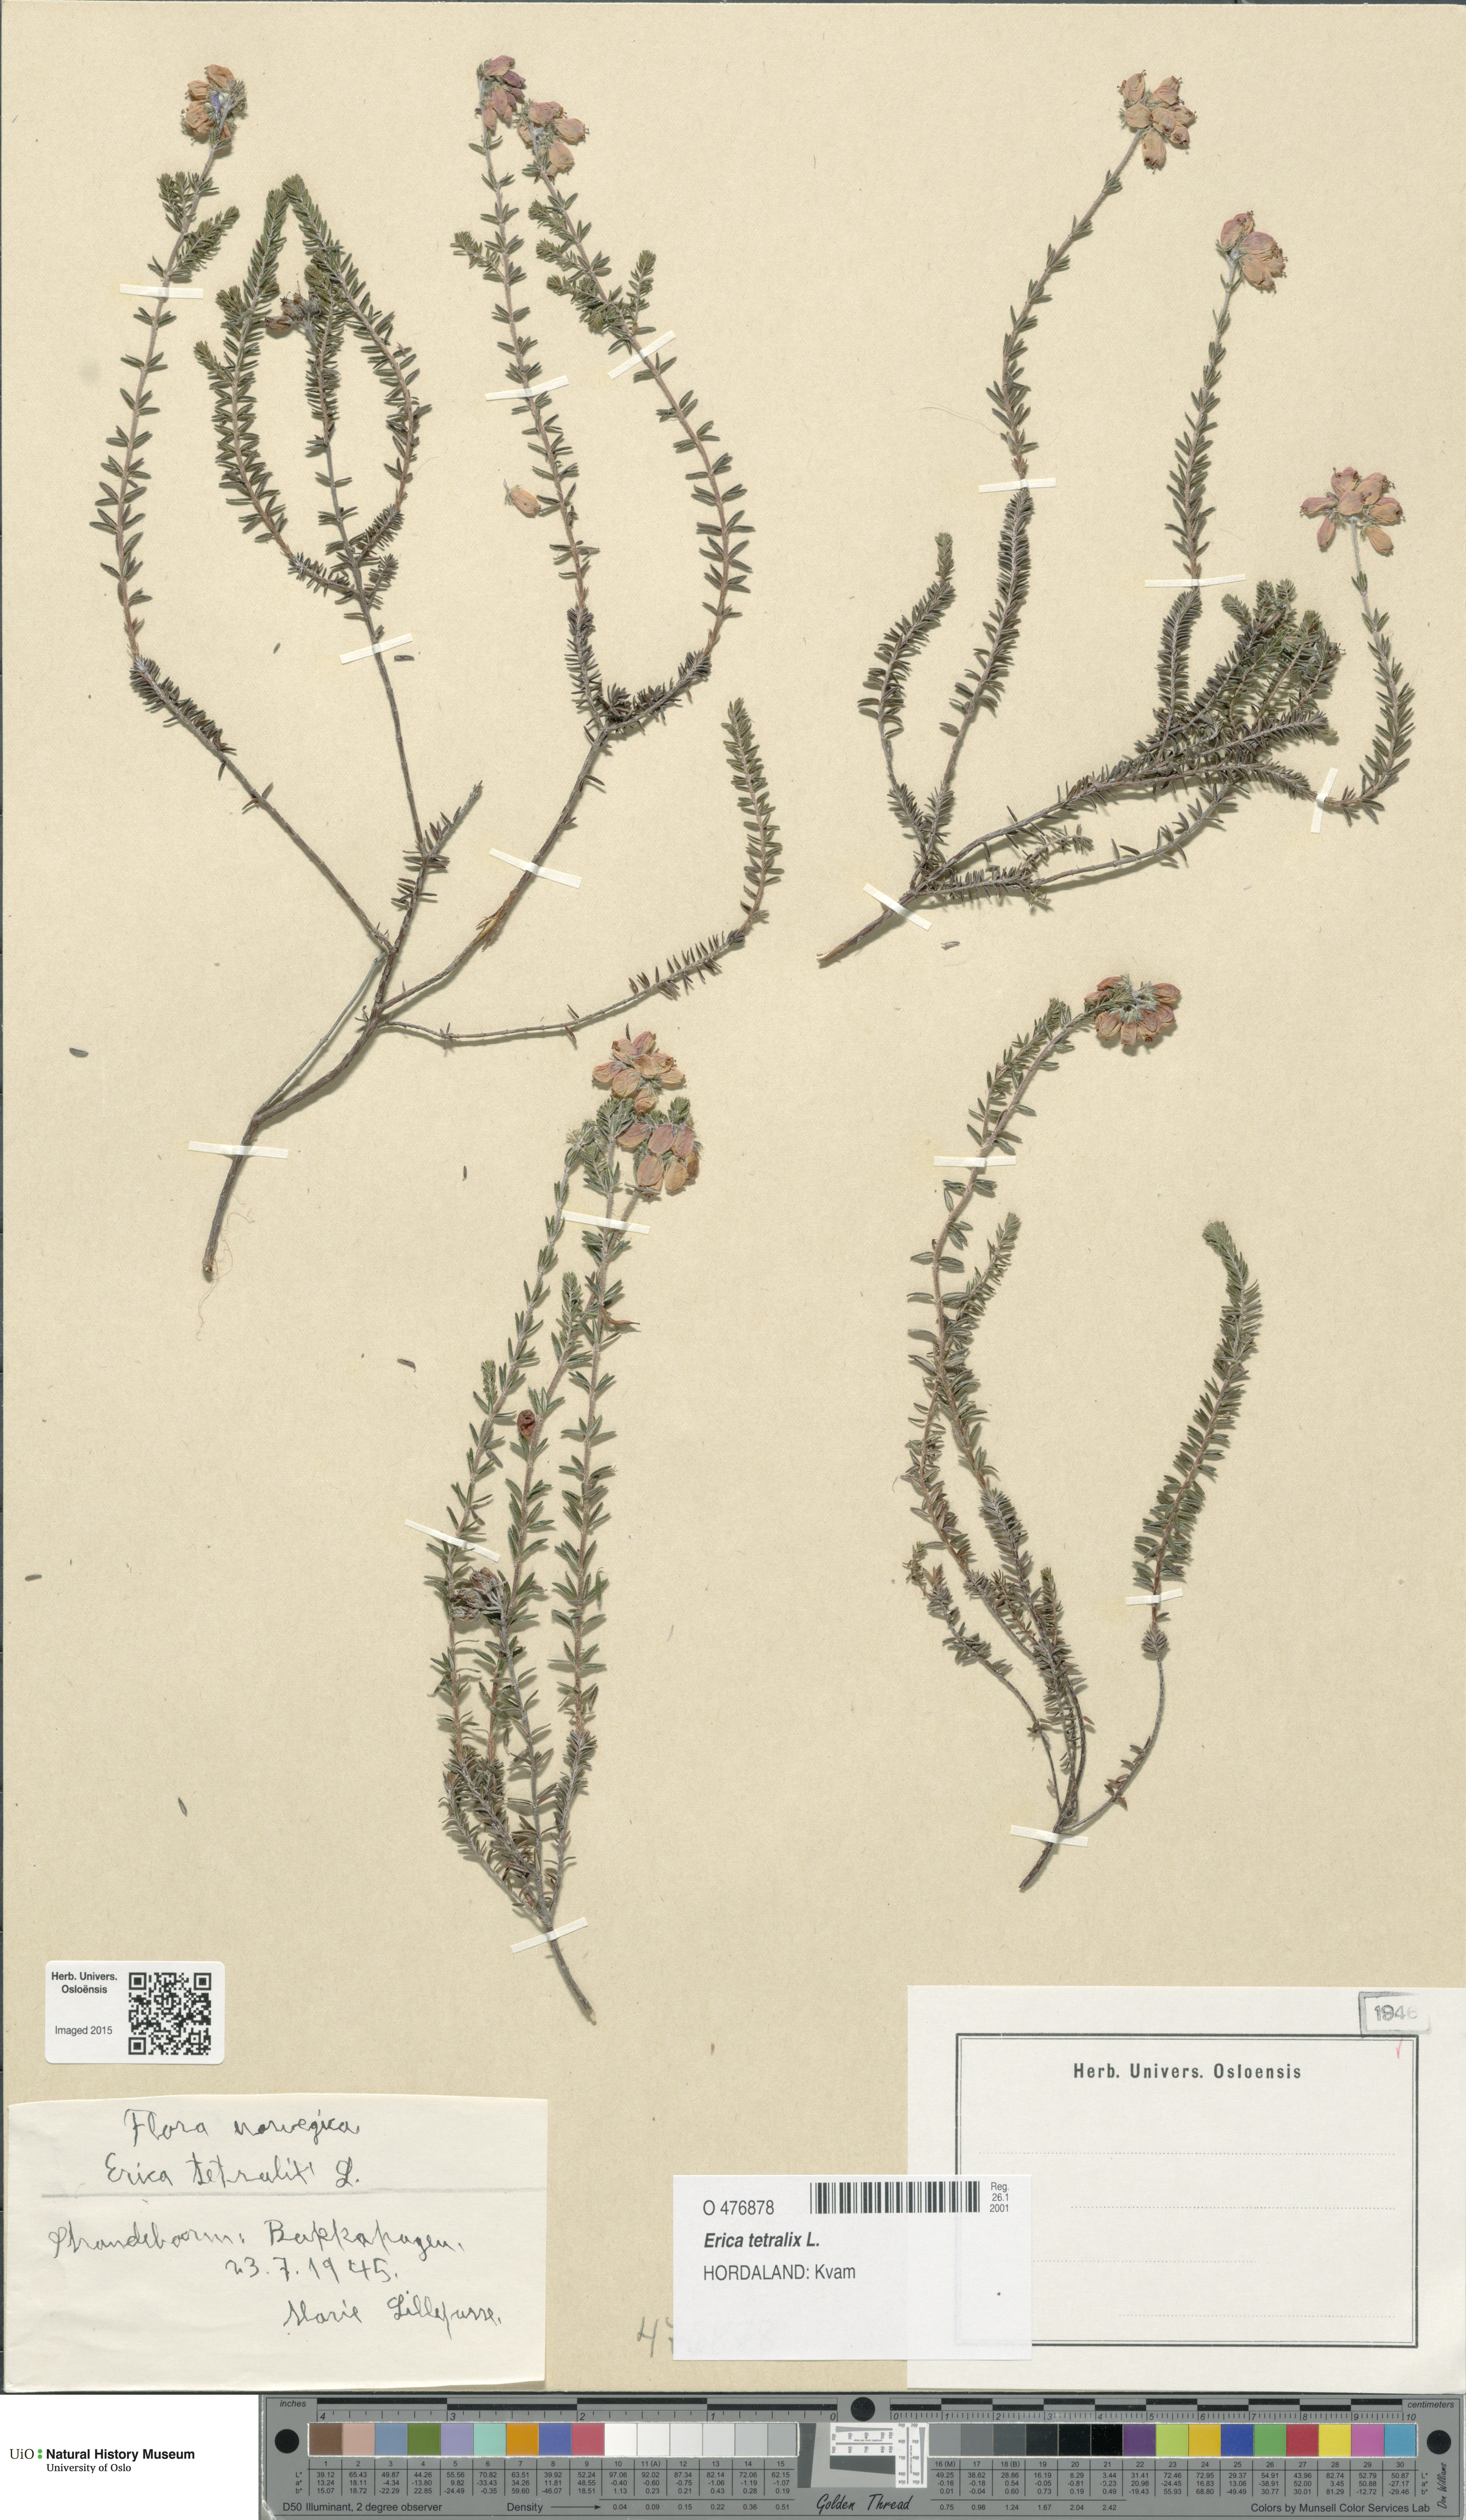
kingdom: Plantae
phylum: Tracheophyta
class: Magnoliopsida
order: Ericales
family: Ericaceae
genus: Erica
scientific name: Erica tetralix
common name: Cross-leaved heath
